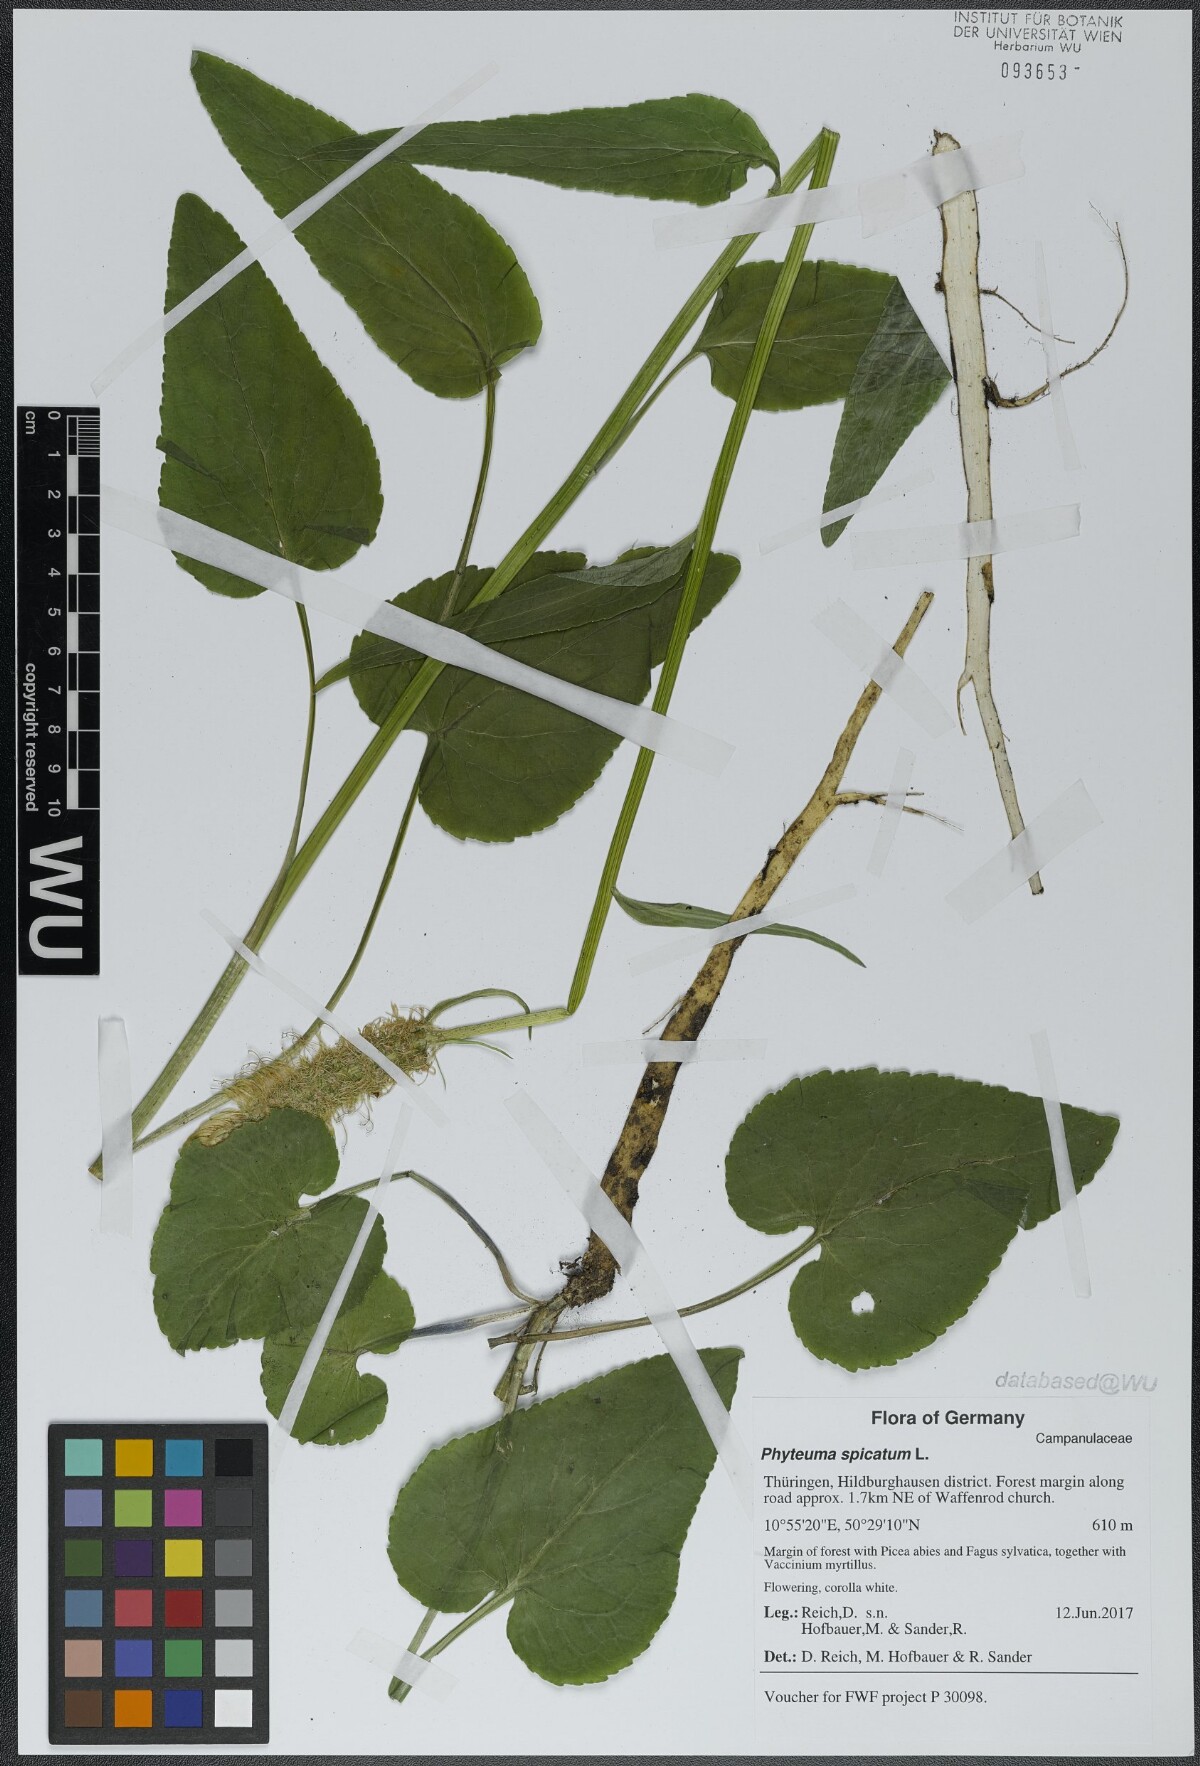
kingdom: Plantae
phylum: Tracheophyta
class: Magnoliopsida
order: Asterales
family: Campanulaceae
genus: Phyteuma
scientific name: Phyteuma spicatum
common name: Spiked rampion
